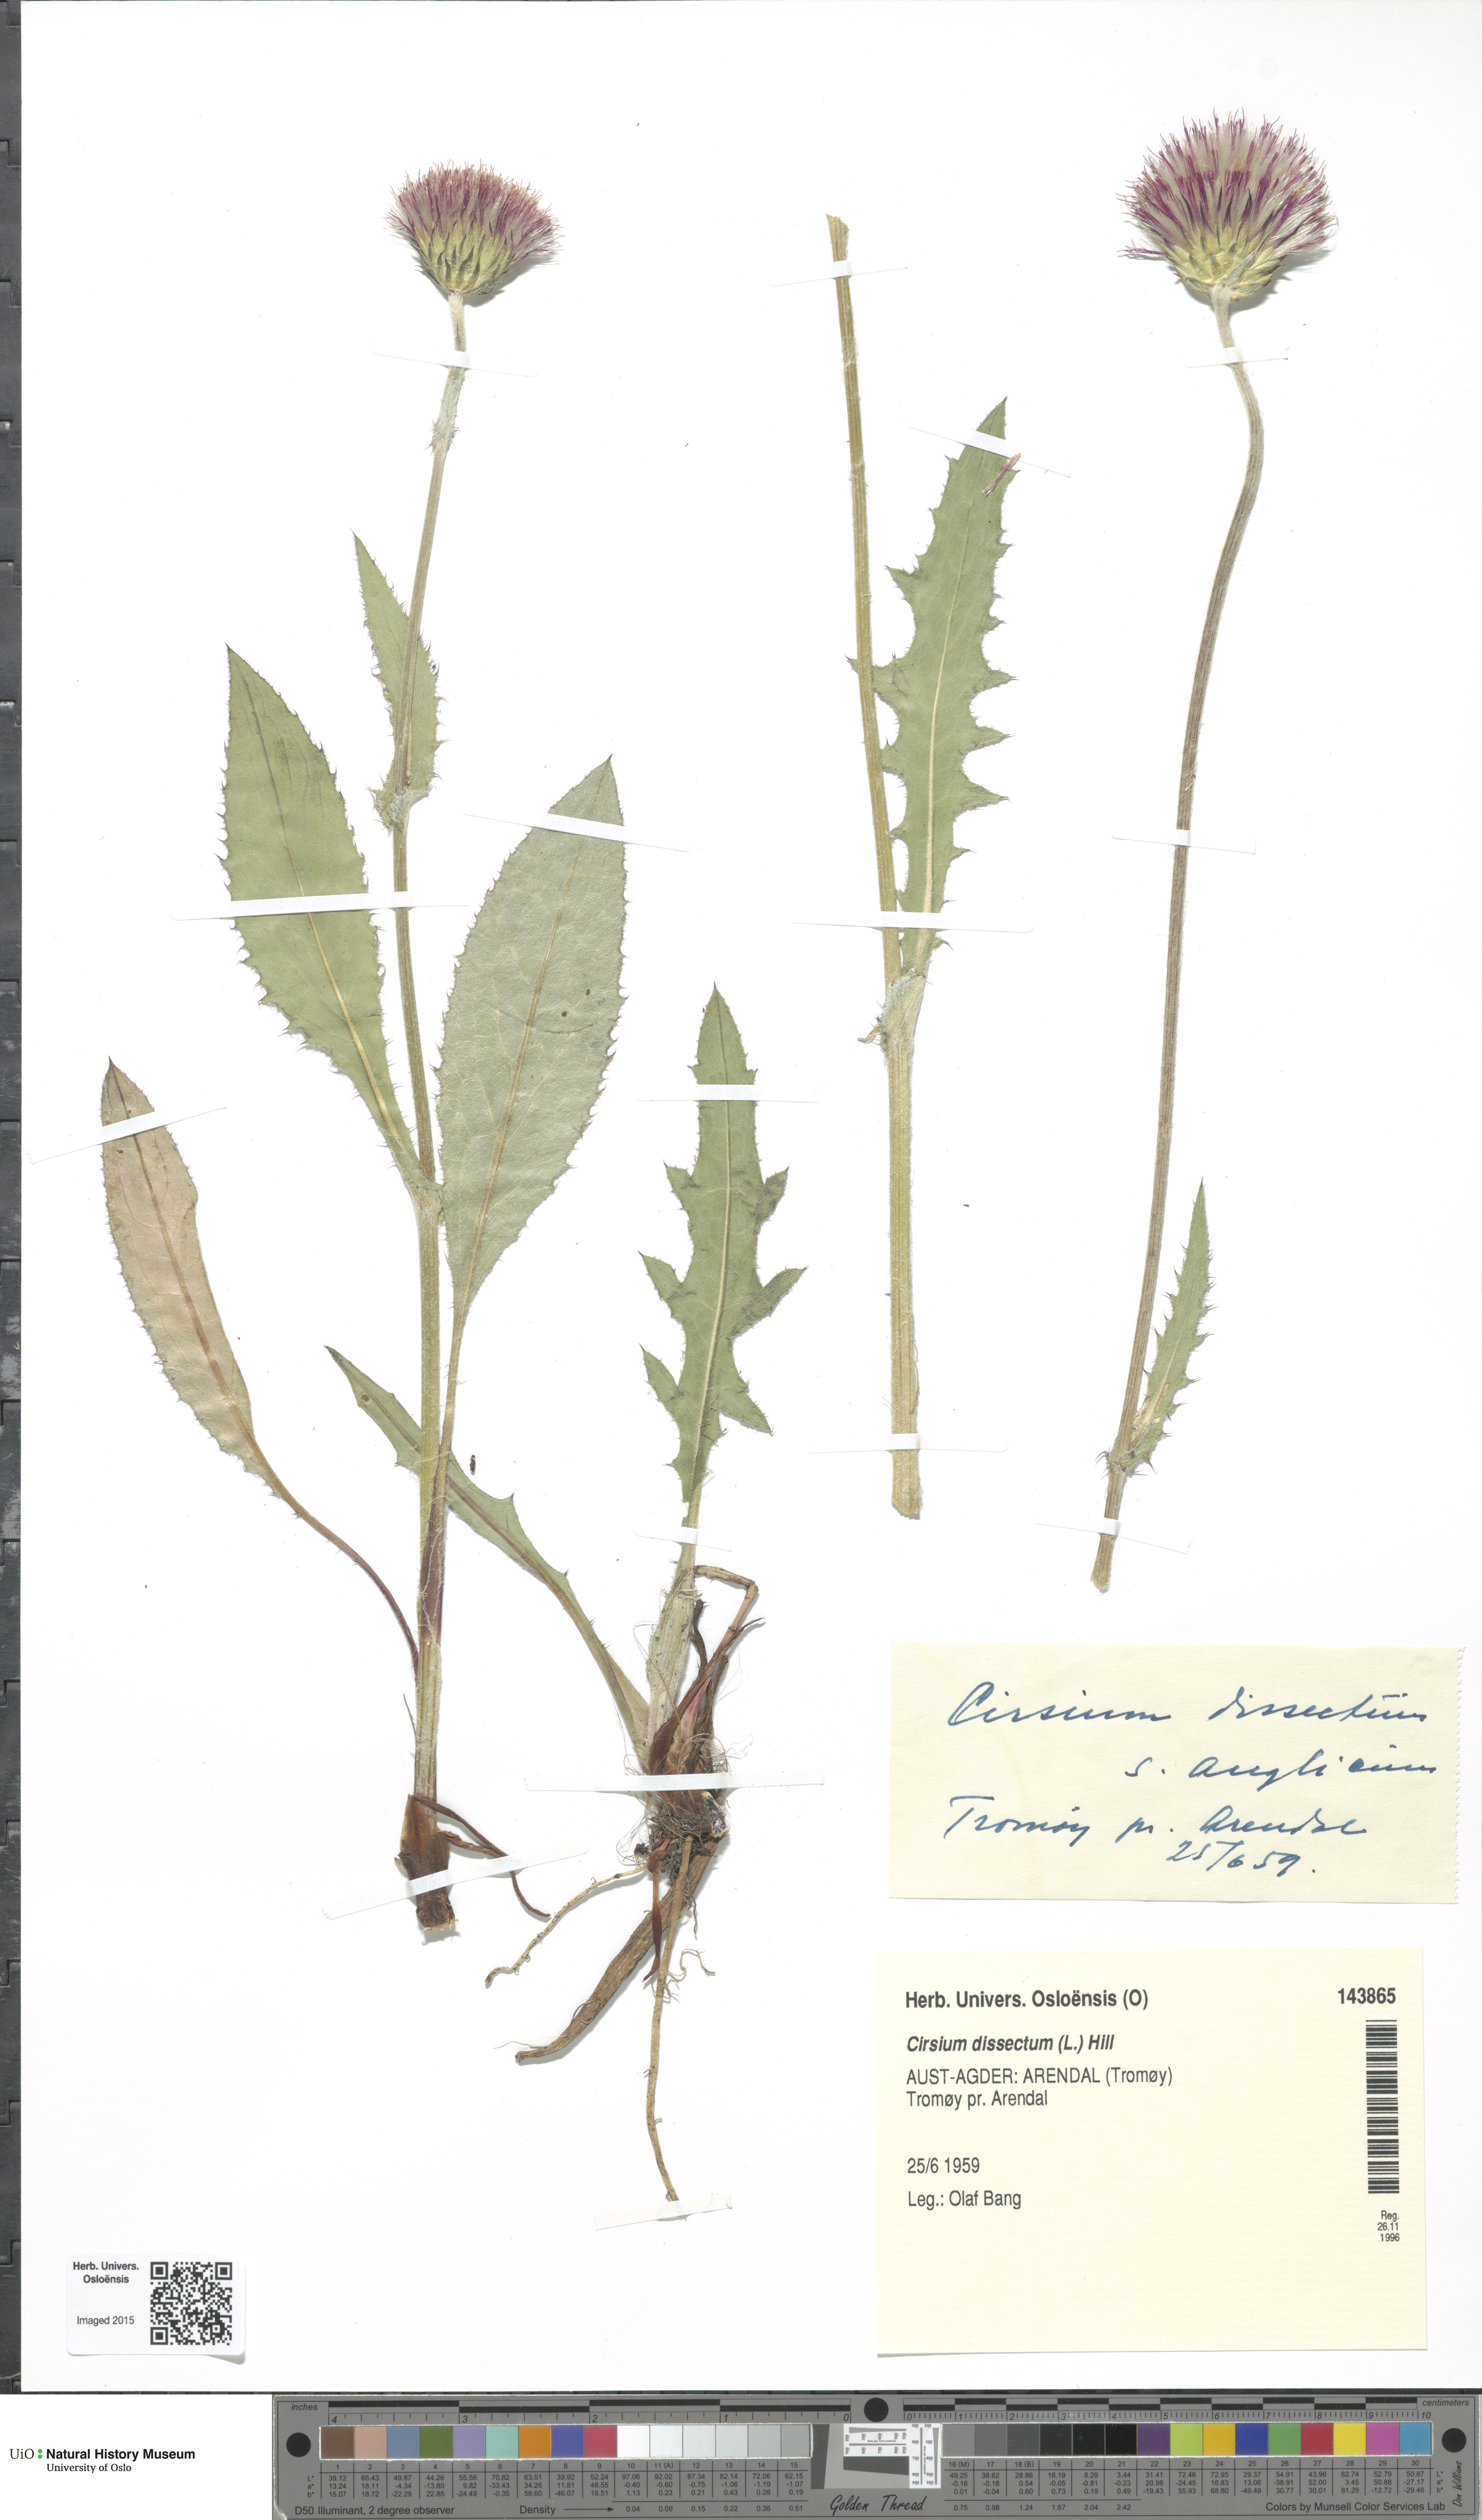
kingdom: Plantae
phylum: Tracheophyta
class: Magnoliopsida
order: Asterales
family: Asteraceae
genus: Cirsium
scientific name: Cirsium dissectum
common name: Meadow thistle
